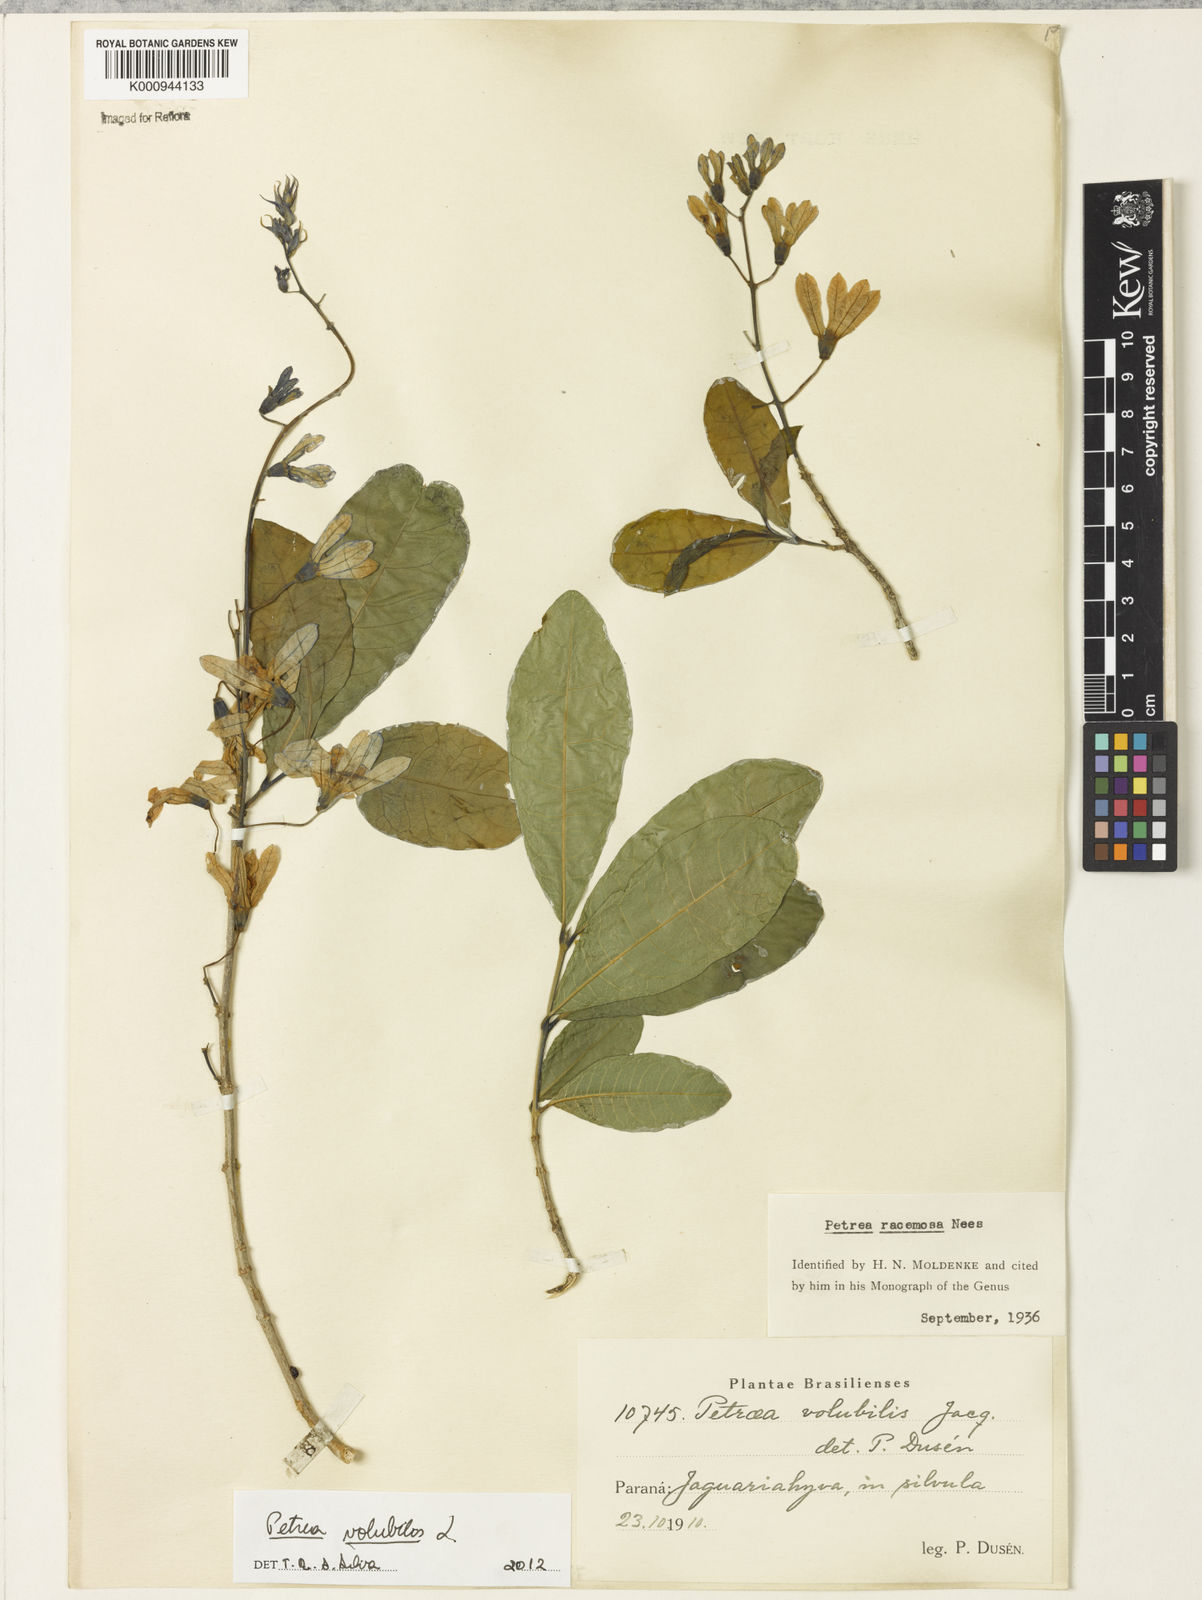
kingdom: Plantae
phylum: Tracheophyta
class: Magnoliopsida
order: Lamiales
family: Verbenaceae
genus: Petrea
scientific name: Petrea volubilis
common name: Queen's-wreath
